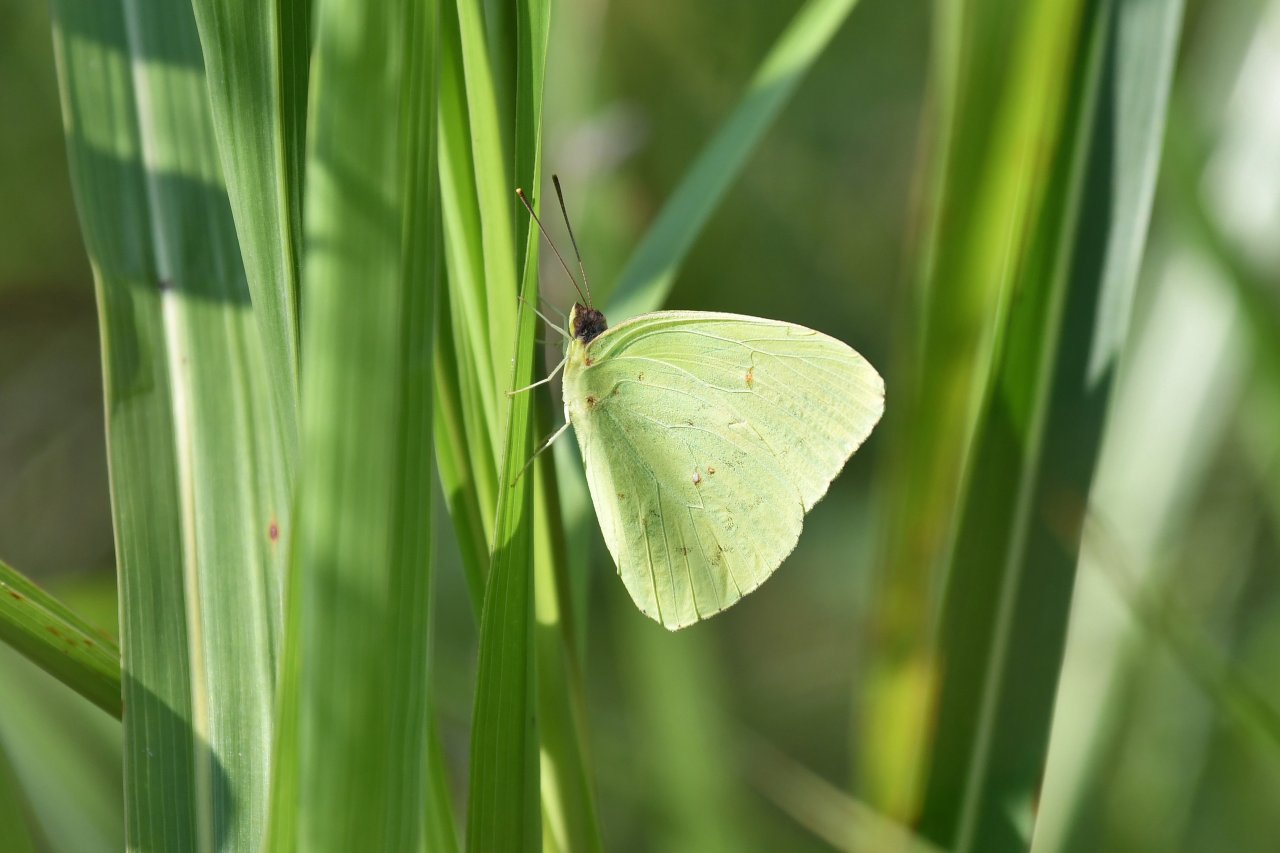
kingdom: Animalia
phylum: Arthropoda
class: Insecta
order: Lepidoptera
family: Pieridae
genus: Phoebis
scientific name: Phoebis sennae
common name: Cloudless Sulphur
